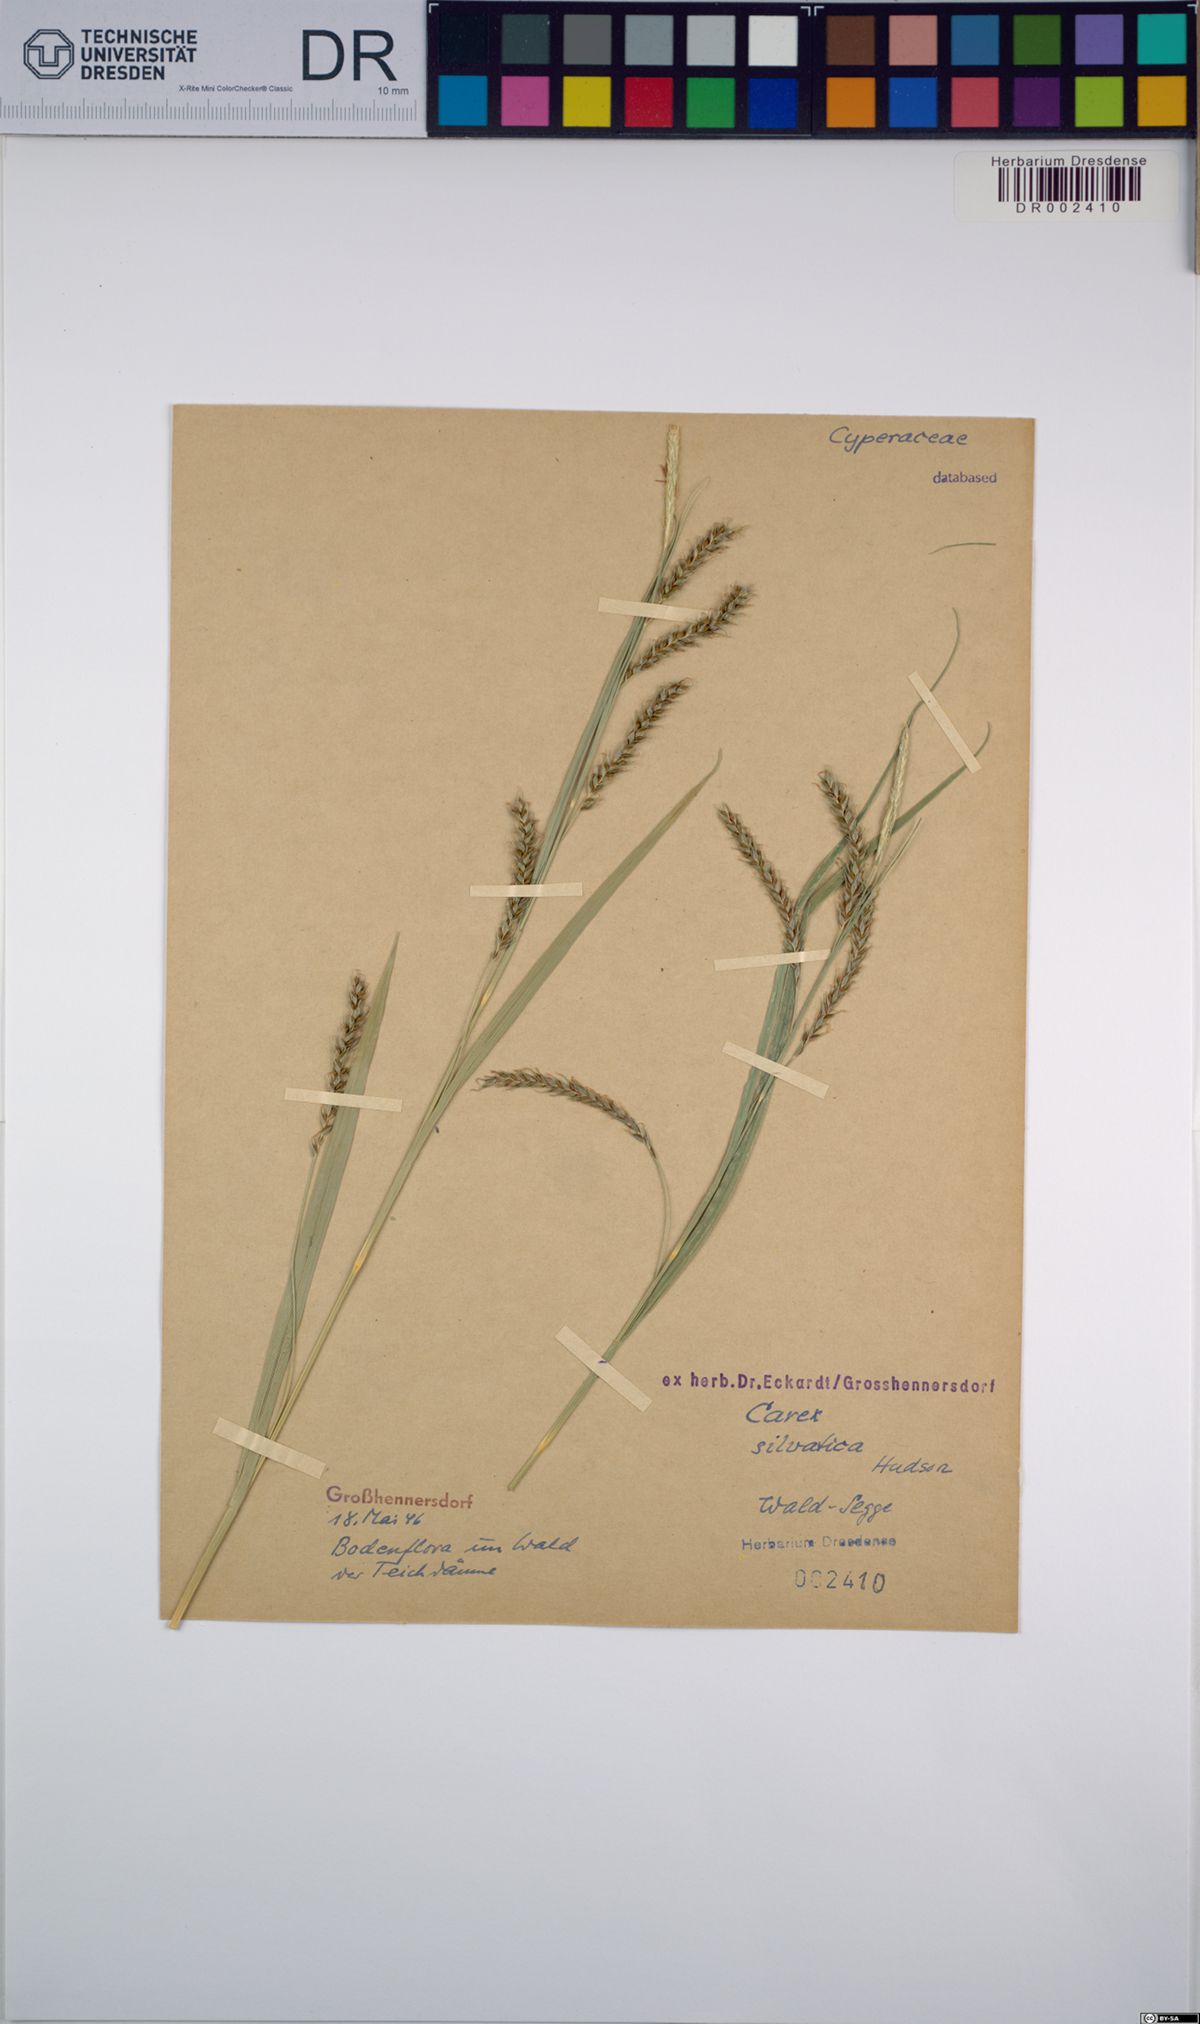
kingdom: Plantae
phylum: Tracheophyta
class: Liliopsida
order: Poales
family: Cyperaceae
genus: Carex
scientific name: Carex sylvatica
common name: Wood-sedge
